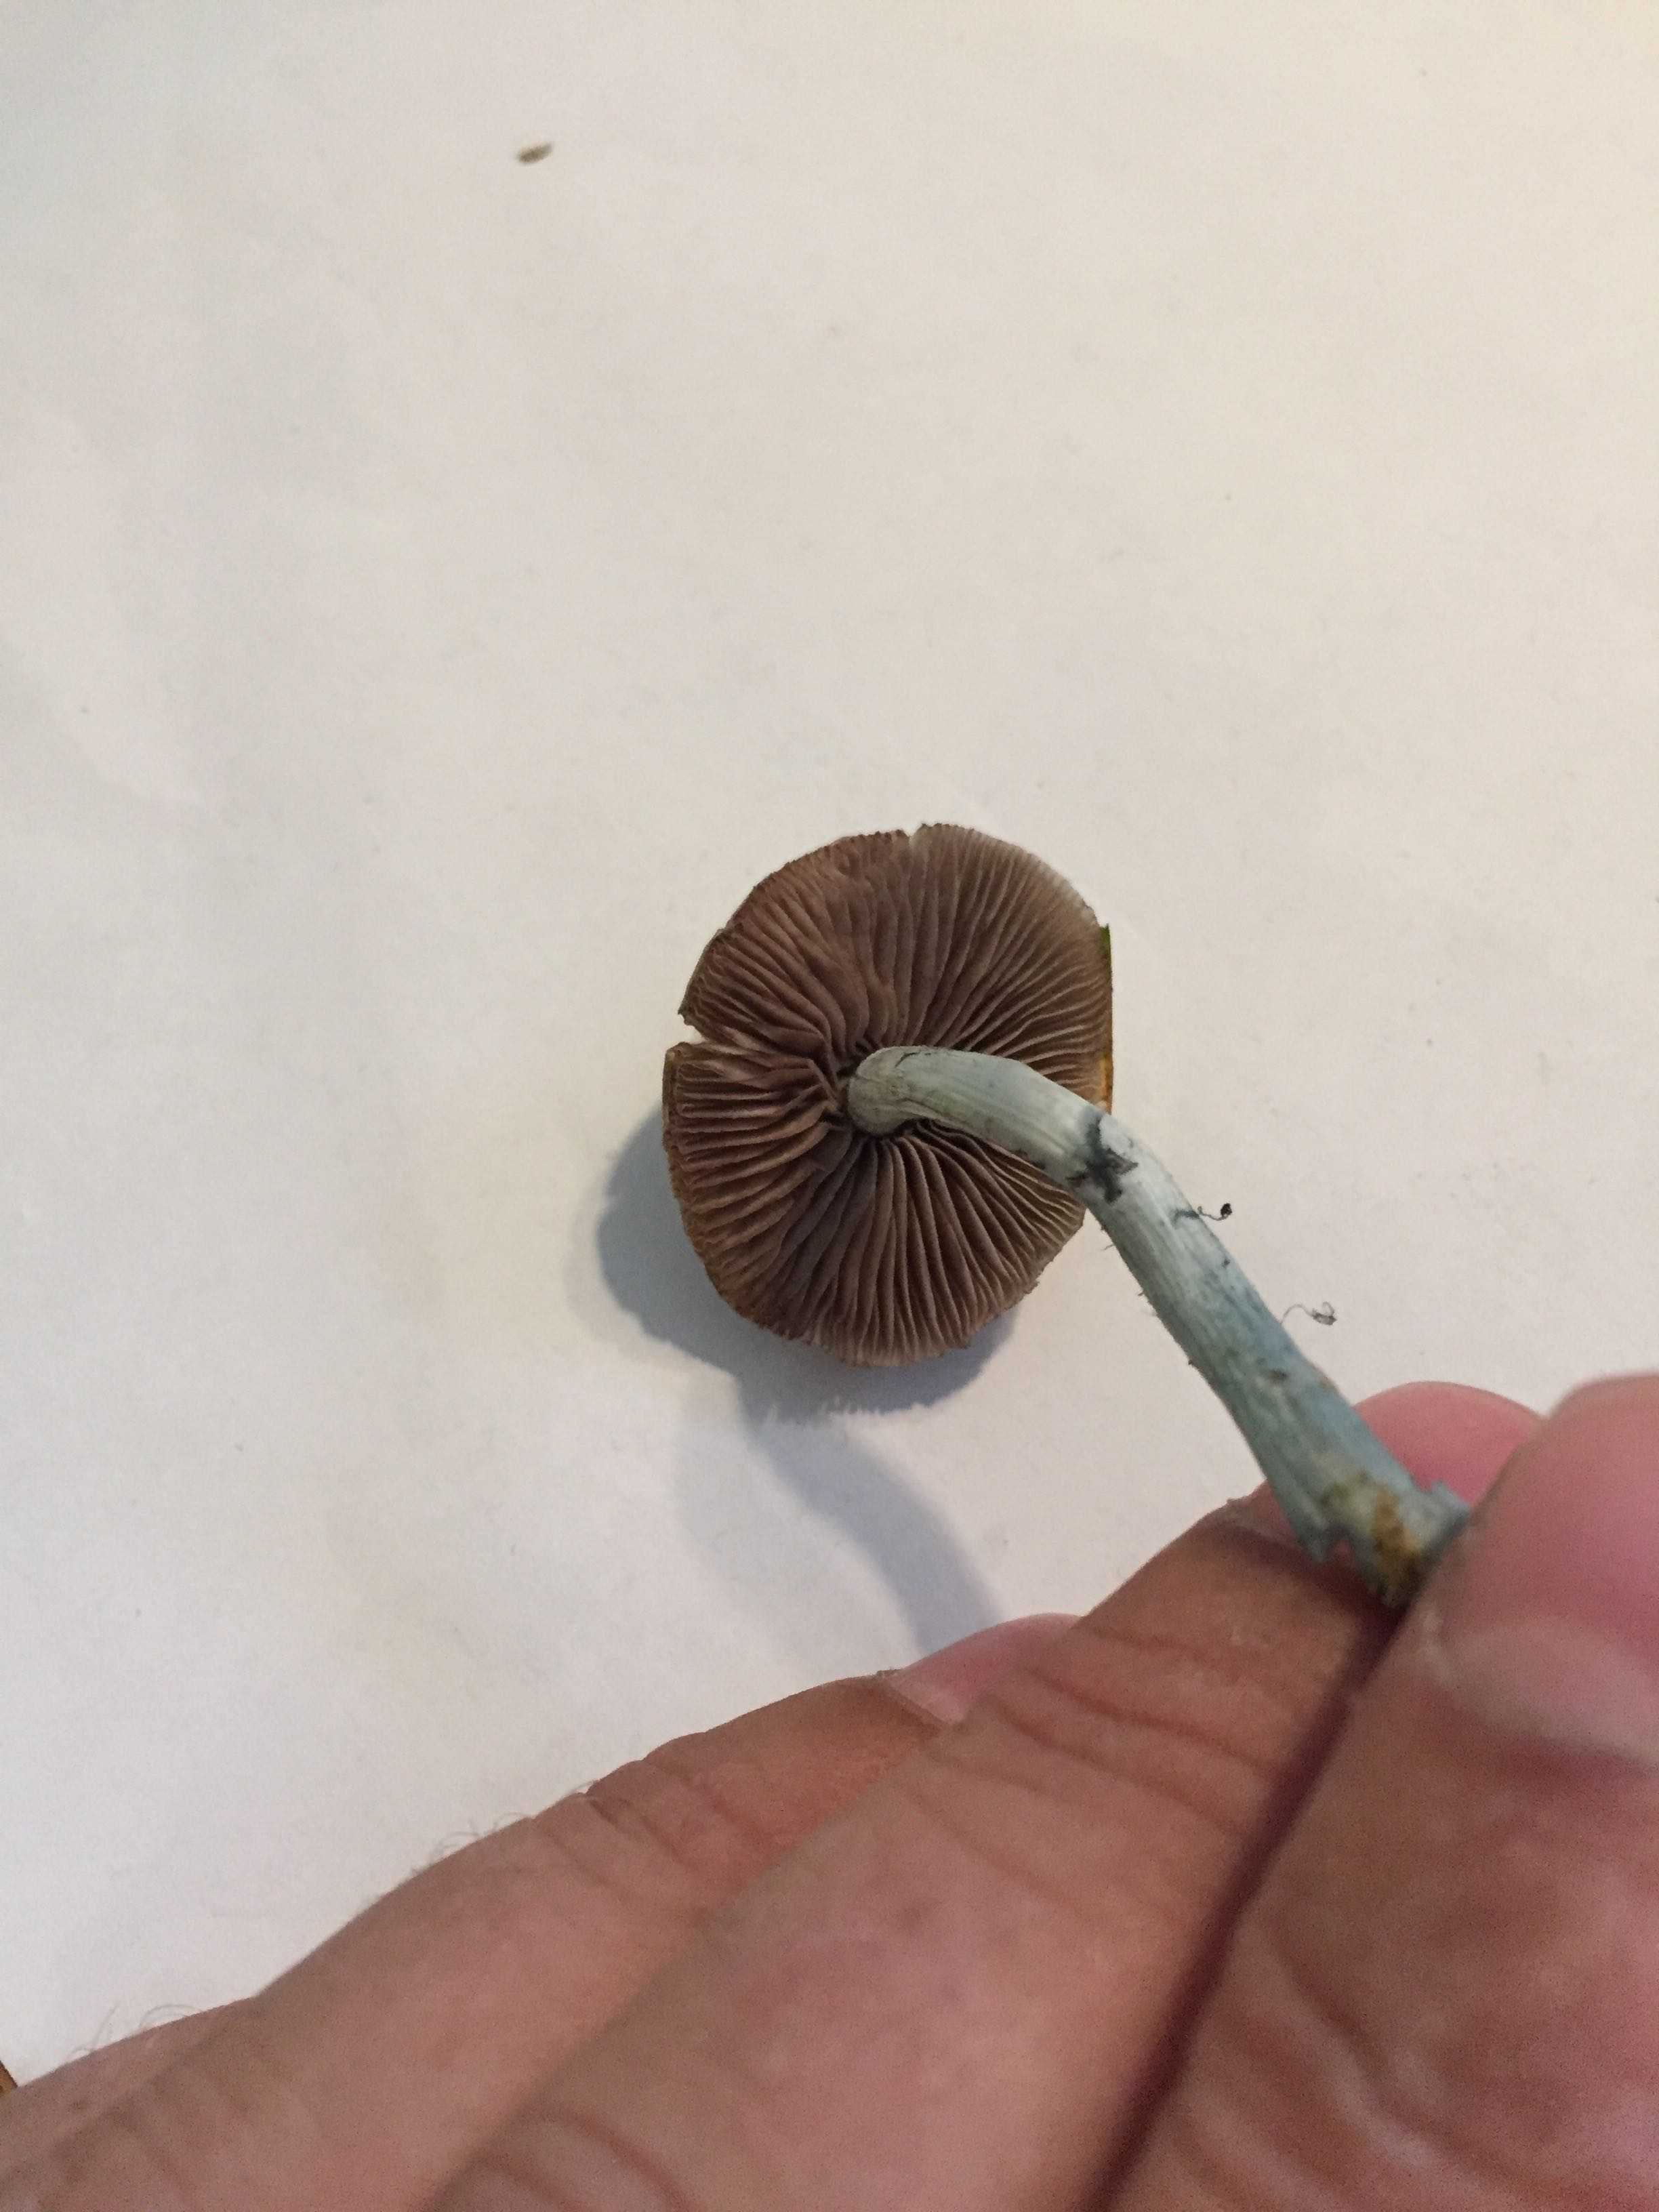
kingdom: Fungi
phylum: Basidiomycota
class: Agaricomycetes
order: Agaricales
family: Strophariaceae
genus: Stropharia
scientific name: Stropharia
